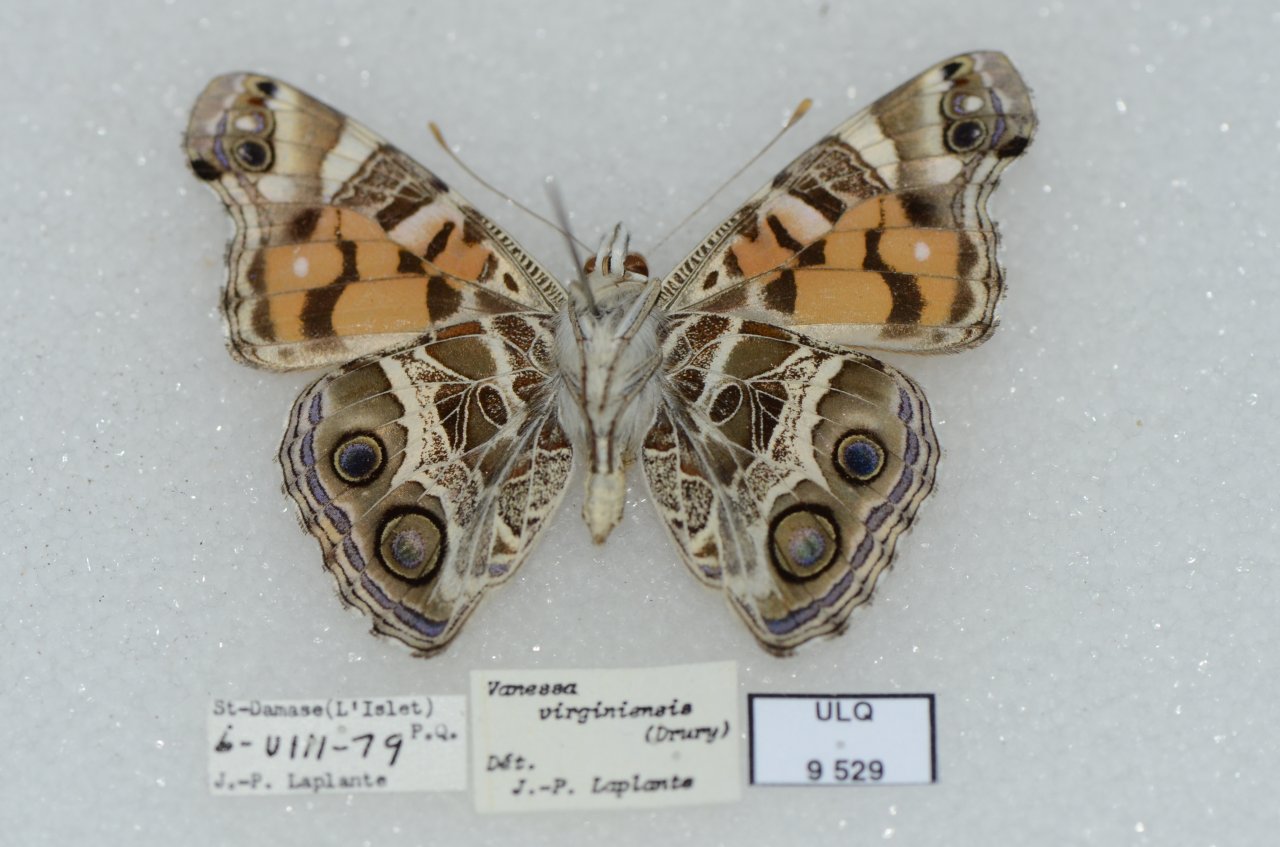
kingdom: Animalia
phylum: Arthropoda
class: Insecta
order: Lepidoptera
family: Nymphalidae
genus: Vanessa
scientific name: Vanessa virginiensis
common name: American Lady
